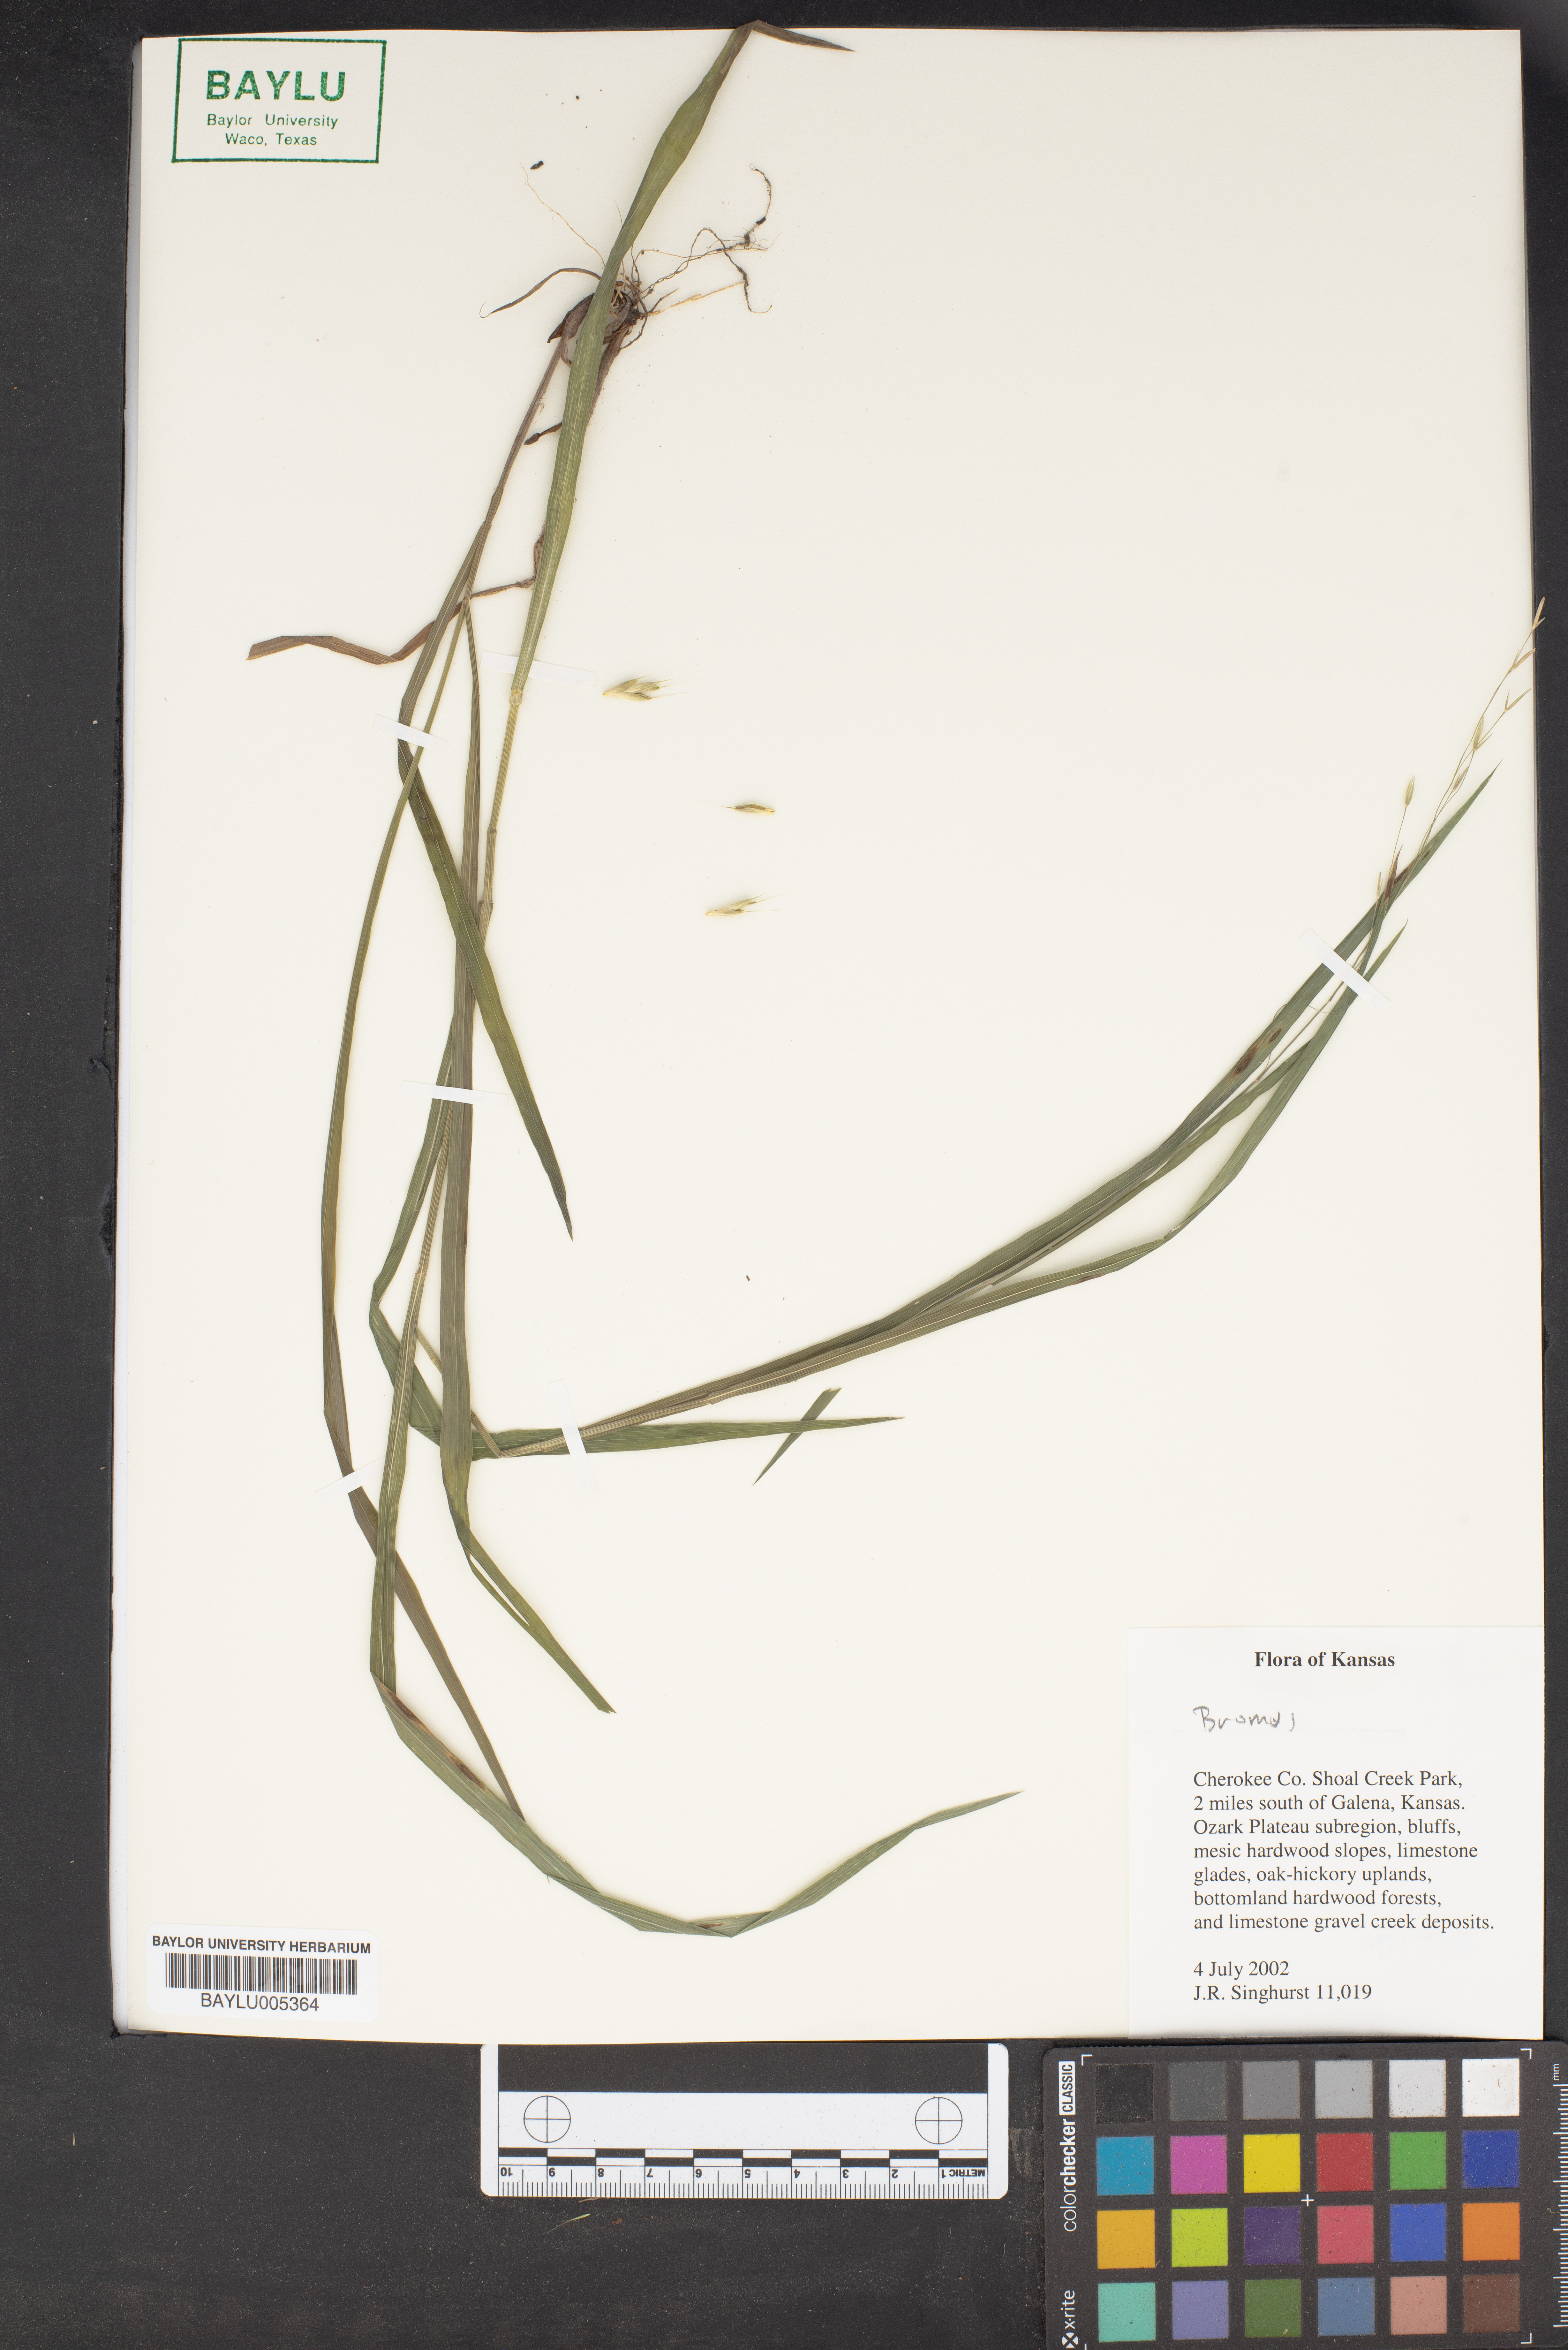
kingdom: Plantae
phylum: Tracheophyta
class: Liliopsida
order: Poales
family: Poaceae
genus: Bromus
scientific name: Bromus
